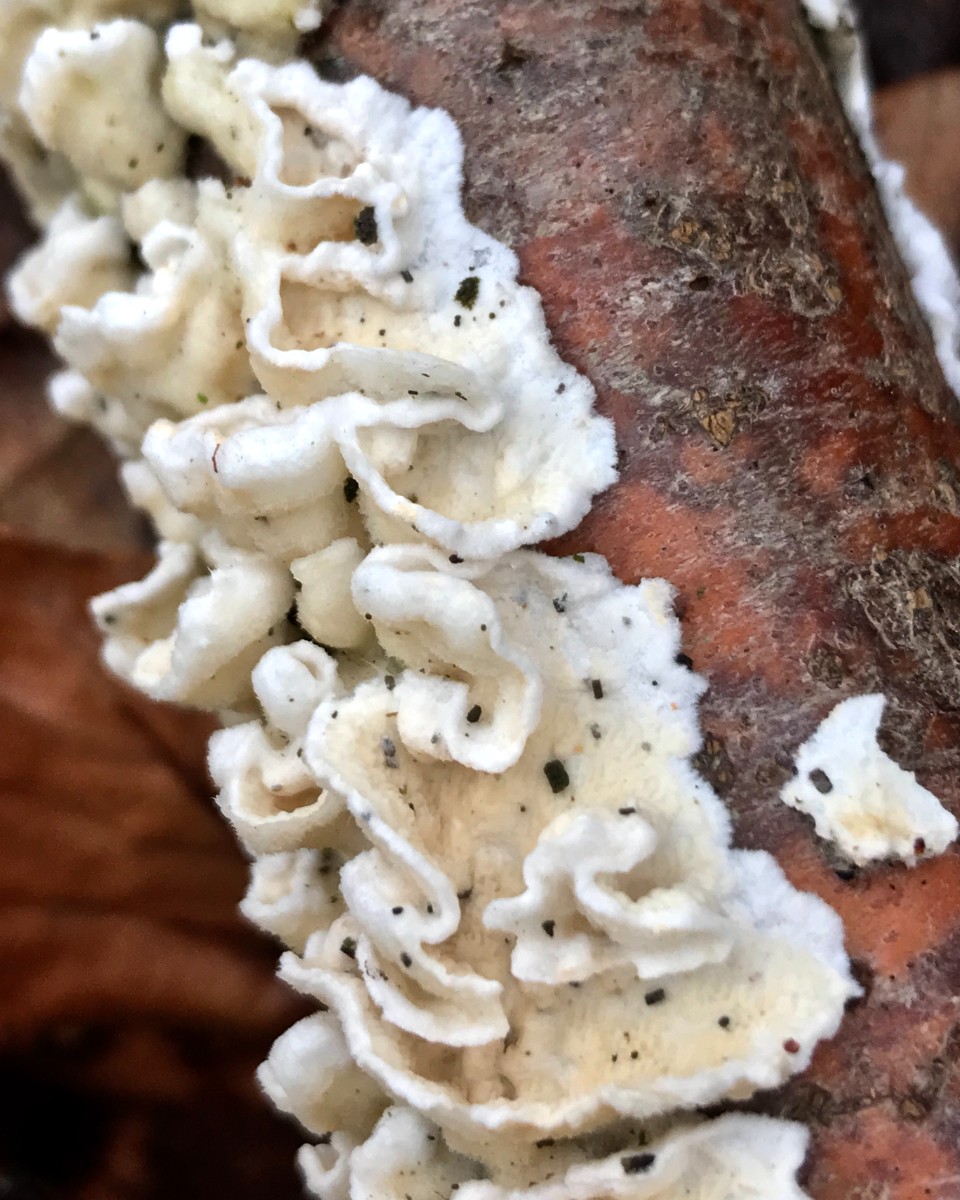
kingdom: Fungi
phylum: Basidiomycota
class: Agaricomycetes
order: Polyporales
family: Irpicaceae
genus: Byssomerulius
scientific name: Byssomerulius corium
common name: læder-åresvamp
